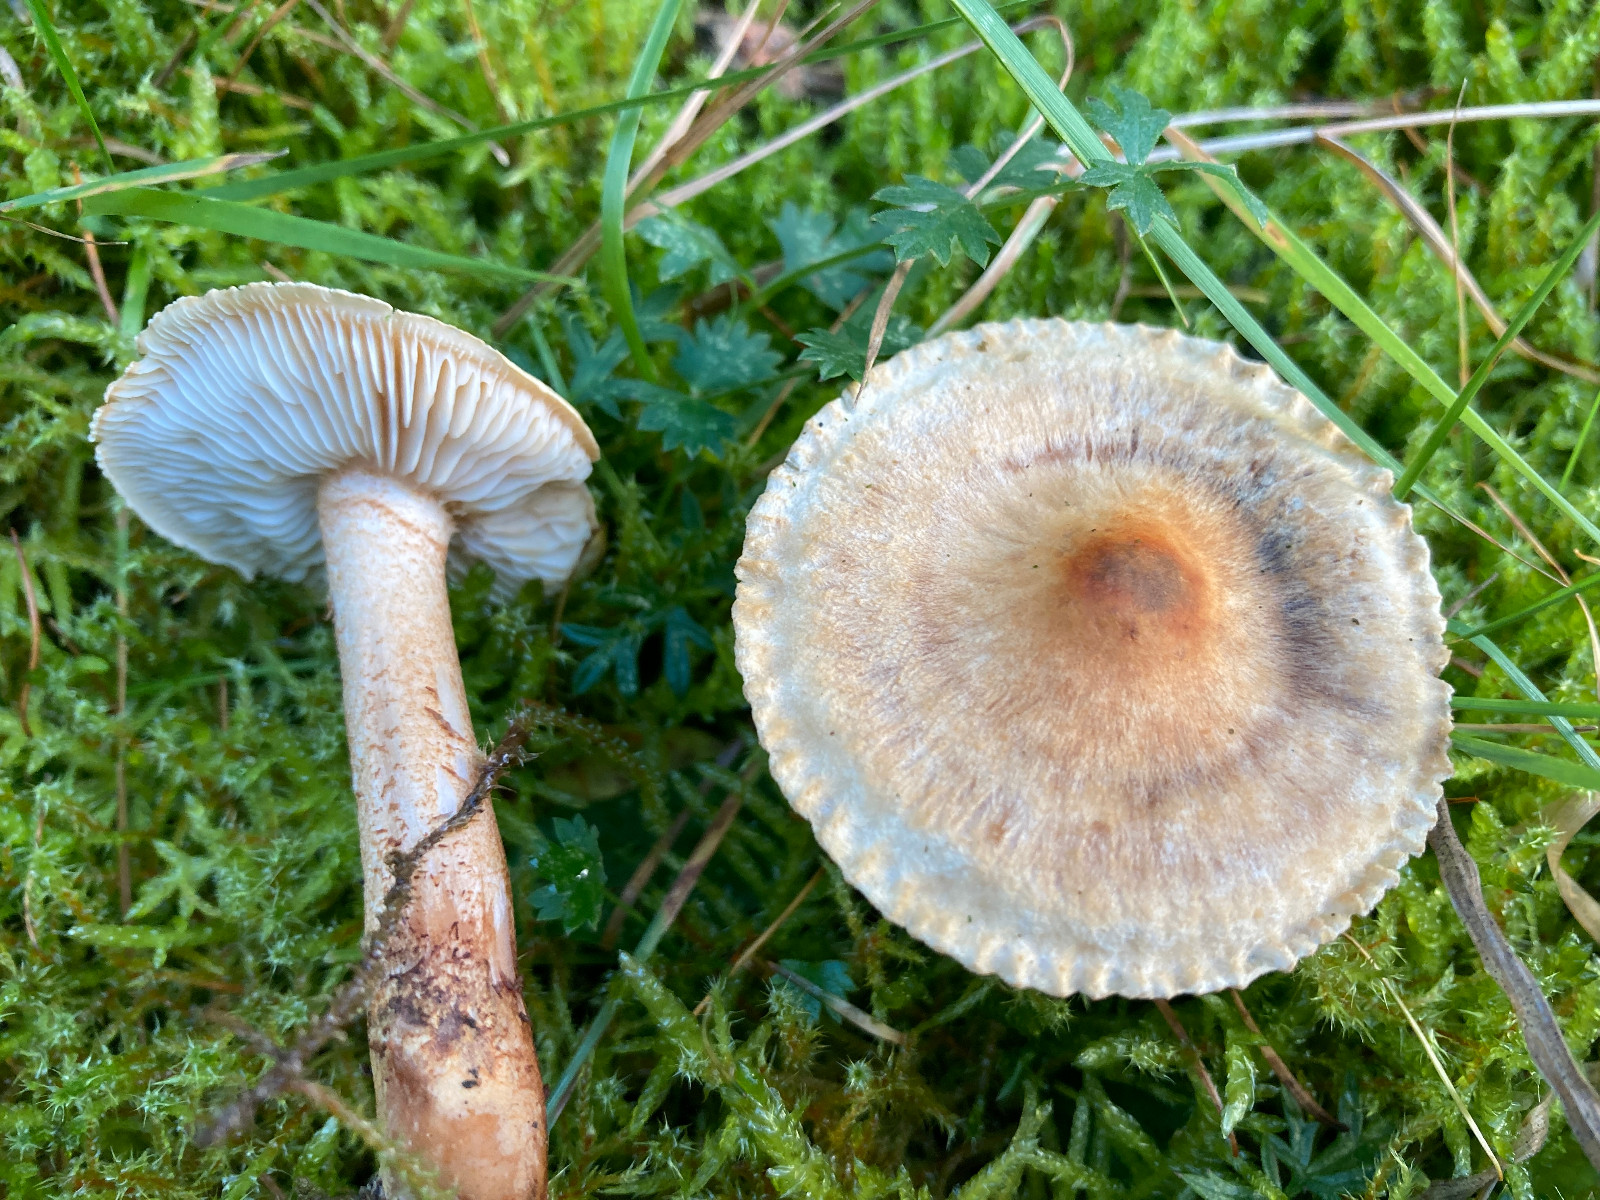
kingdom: Fungi
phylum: Basidiomycota
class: Agaricomycetes
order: Agaricales
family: Tricholomataceae
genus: Tricholoma
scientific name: Tricholoma psammopus
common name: grynstokket ridderhat
